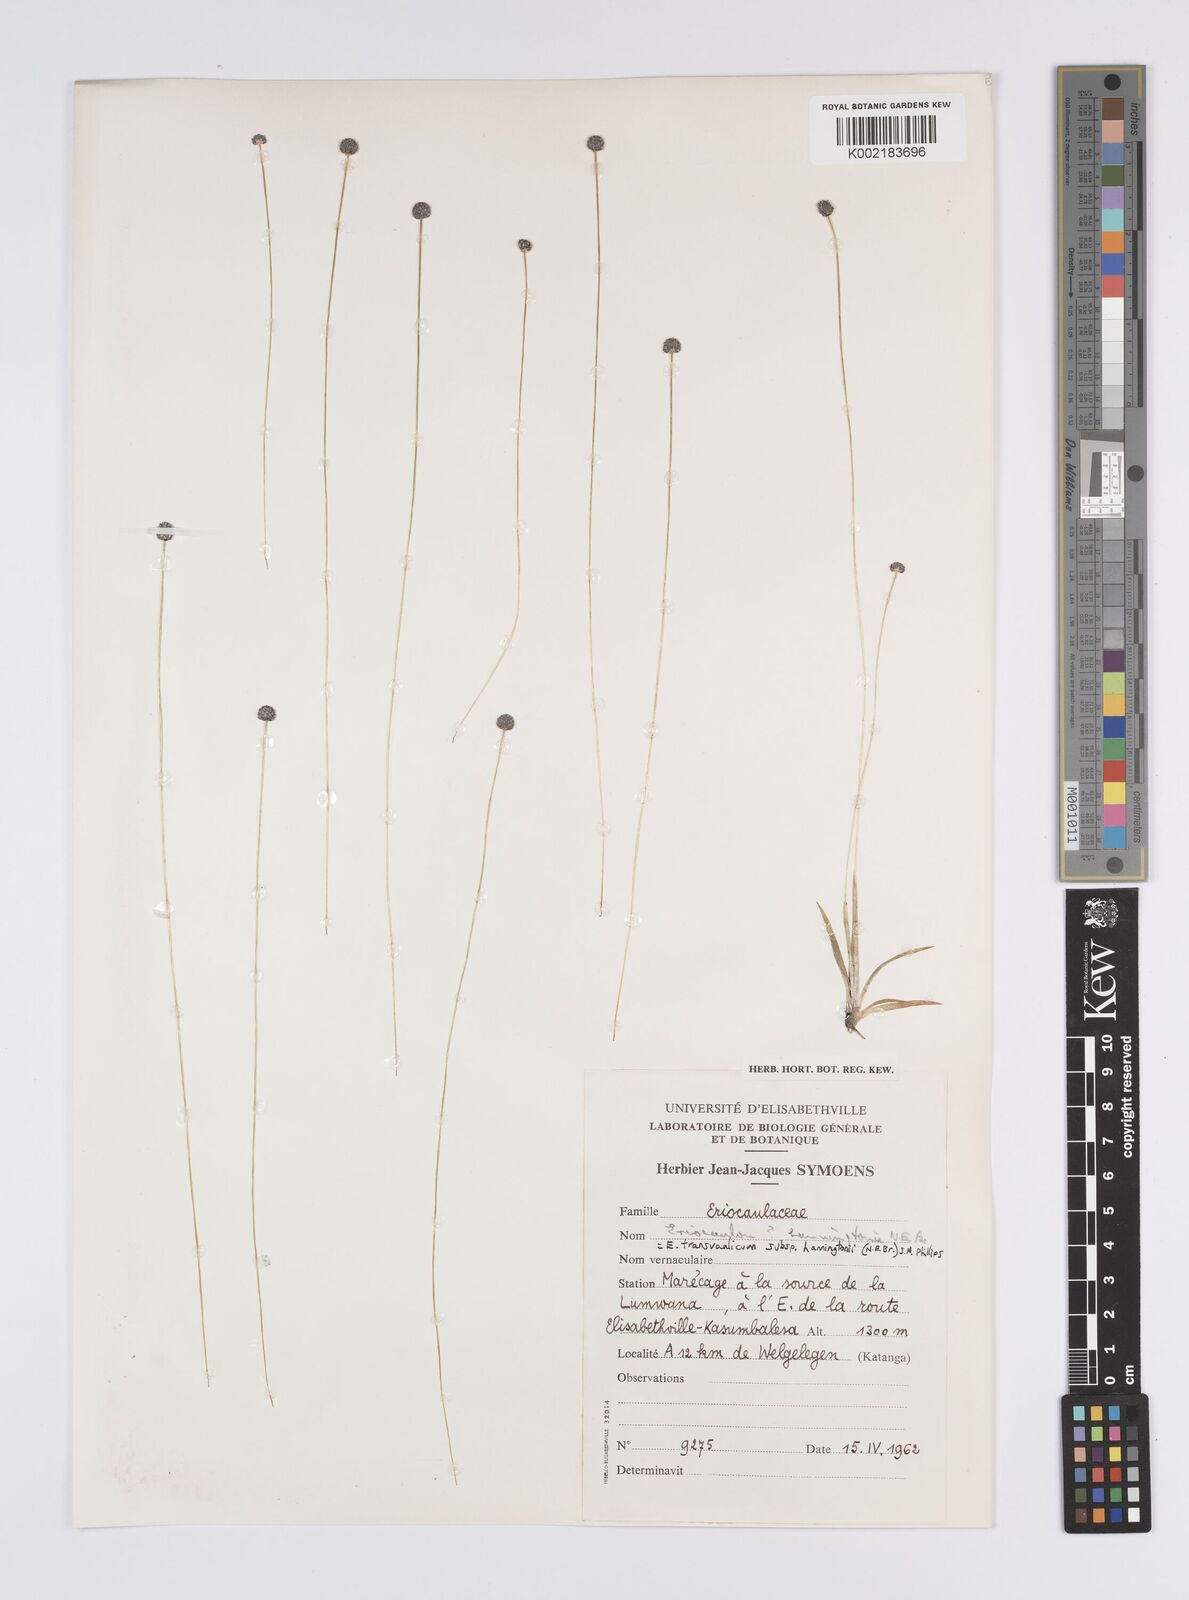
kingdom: Plantae
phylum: Tracheophyta
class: Liliopsida
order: Poales
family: Eriocaulaceae
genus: Eriocaulon
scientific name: Eriocaulon transvaalicum
